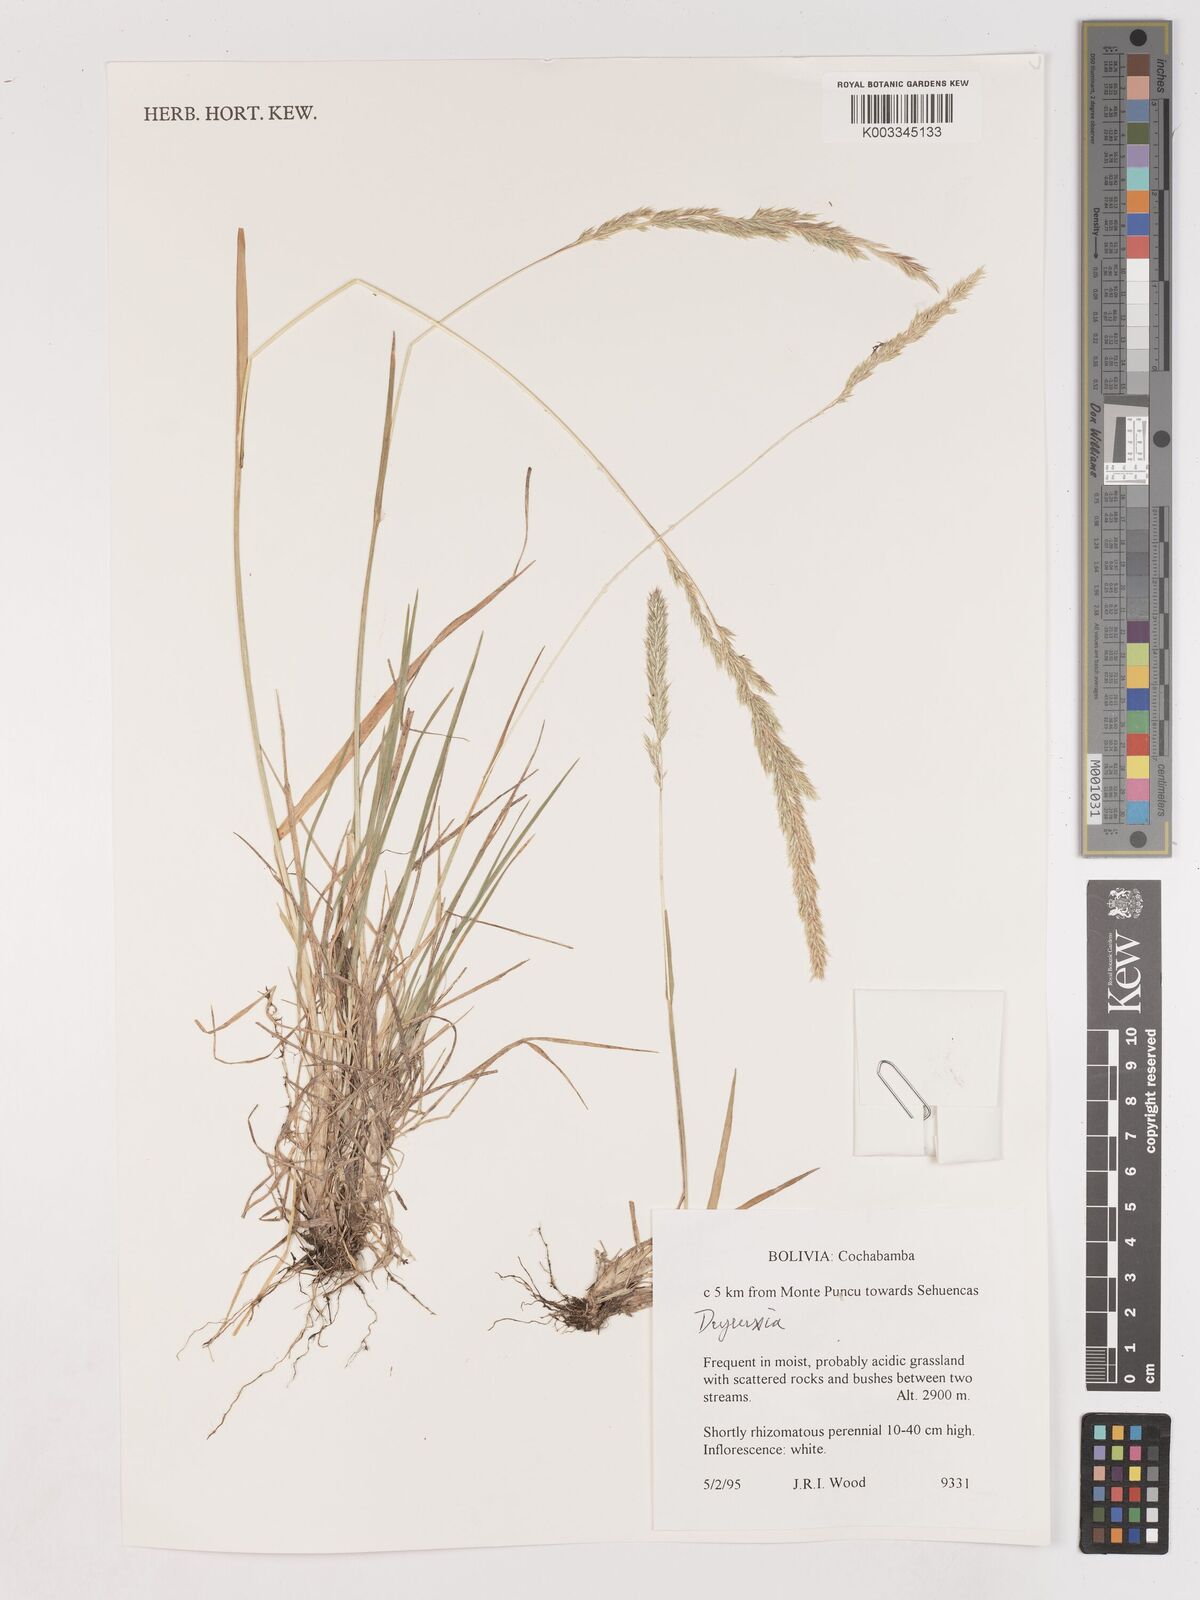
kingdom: Plantae
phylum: Tracheophyta
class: Liliopsida
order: Poales
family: Poaceae
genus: Calamagrostis
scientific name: Calamagrostis
